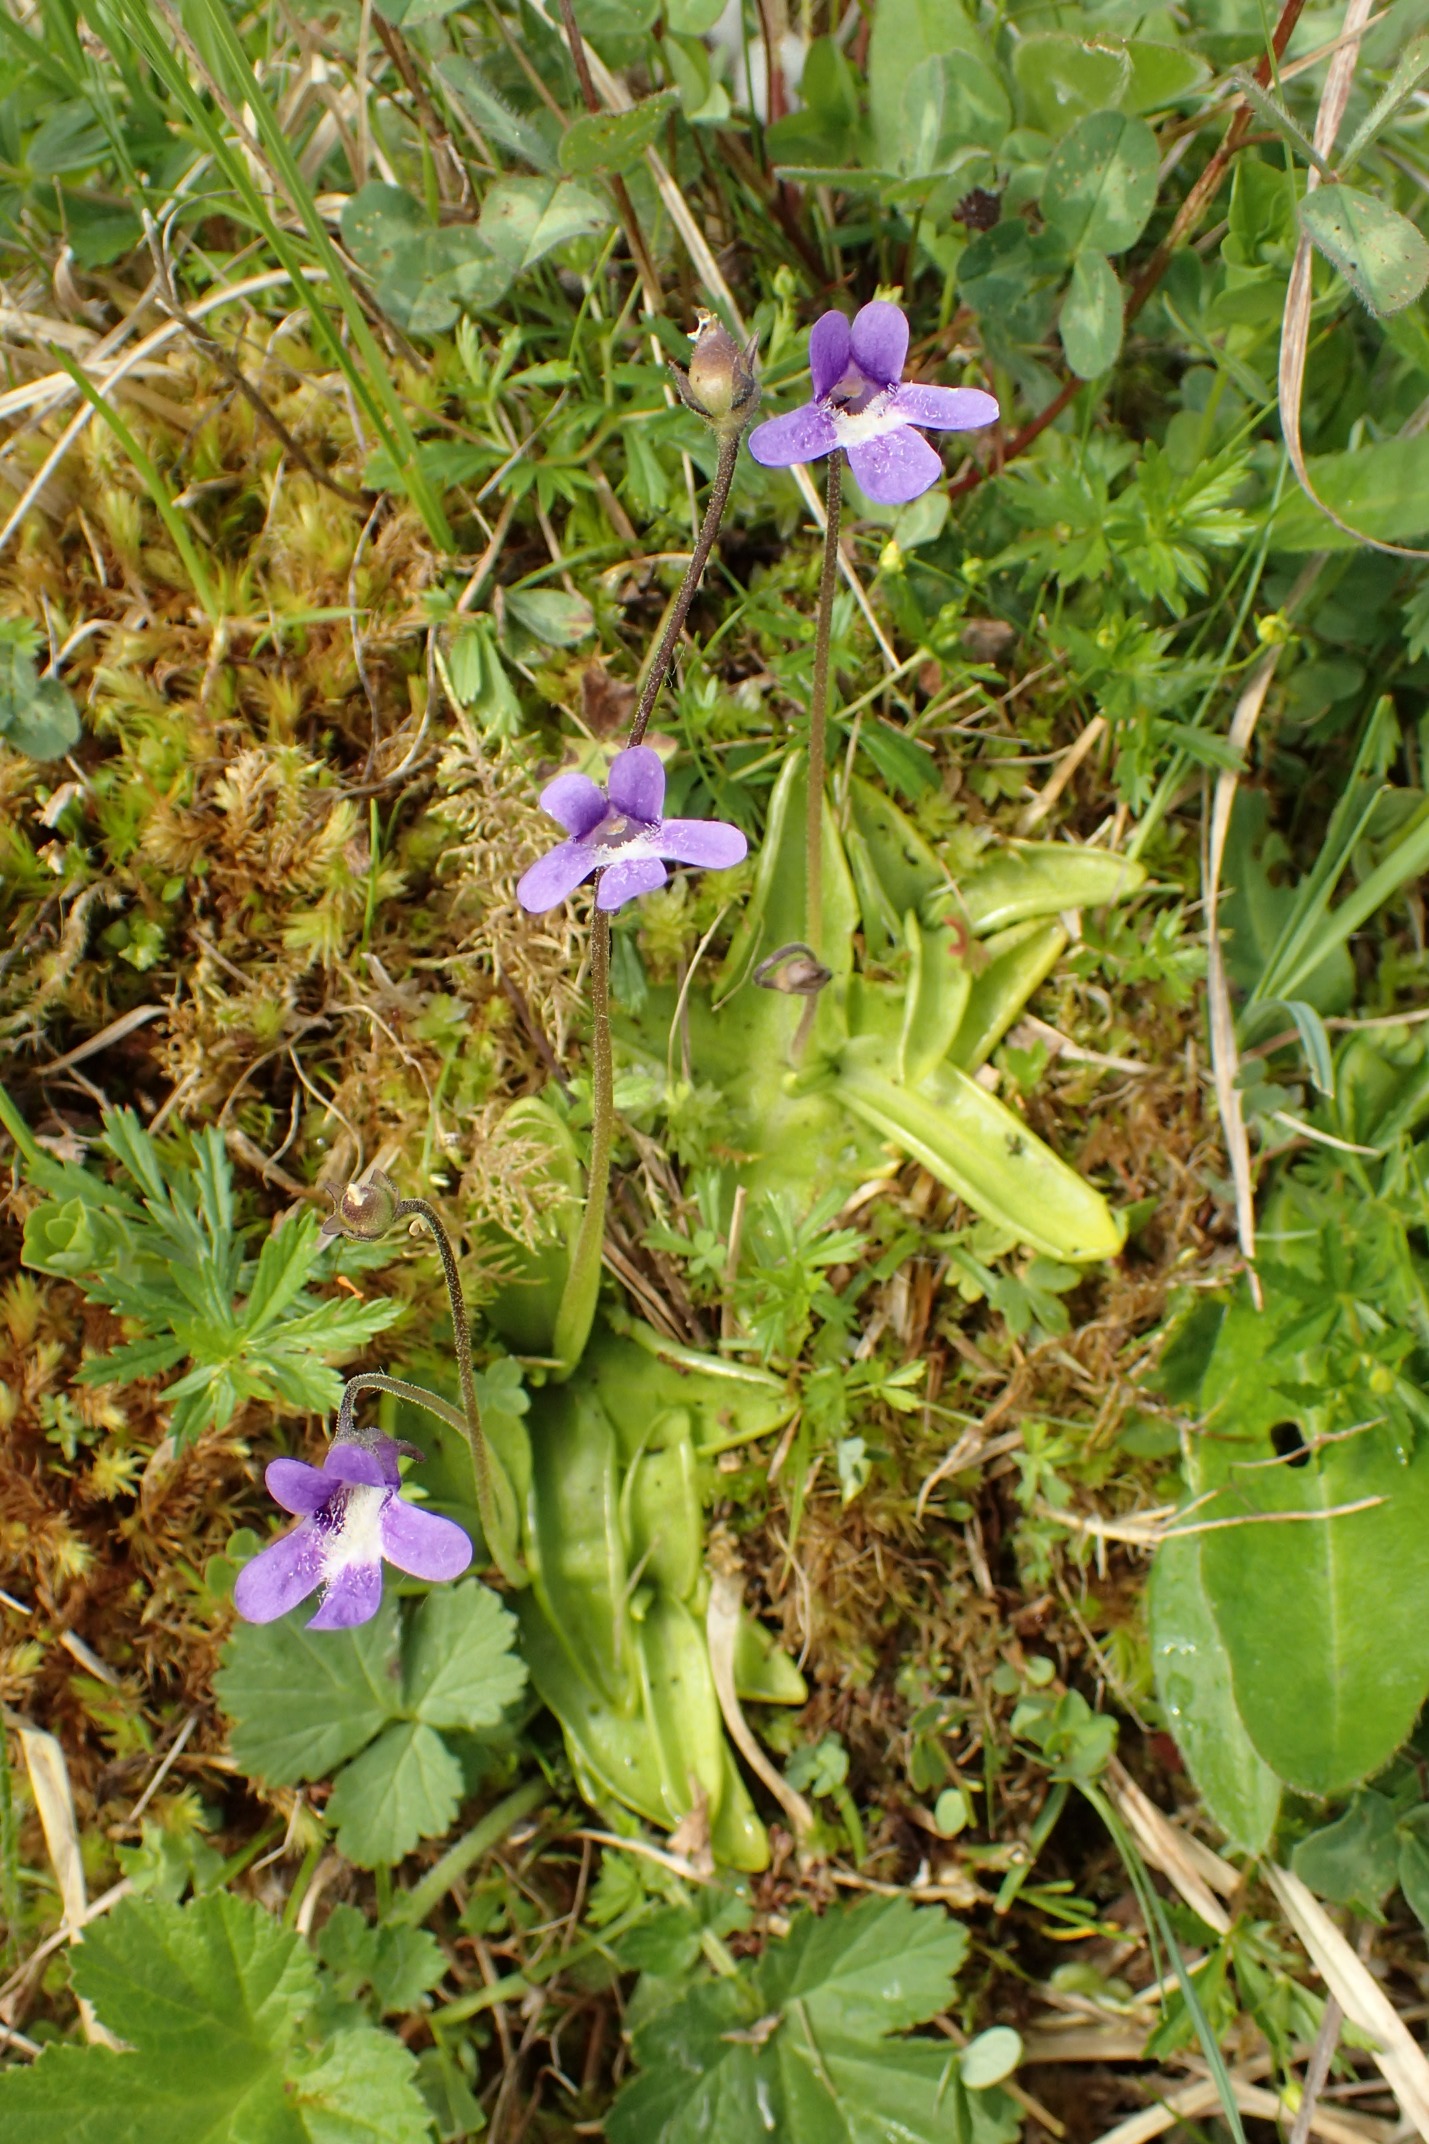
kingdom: Plantae
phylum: Tracheophyta
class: Magnoliopsida
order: Lamiales
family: Lentibulariaceae
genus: Pinguicula
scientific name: Pinguicula vulgaris
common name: Vibefedt
